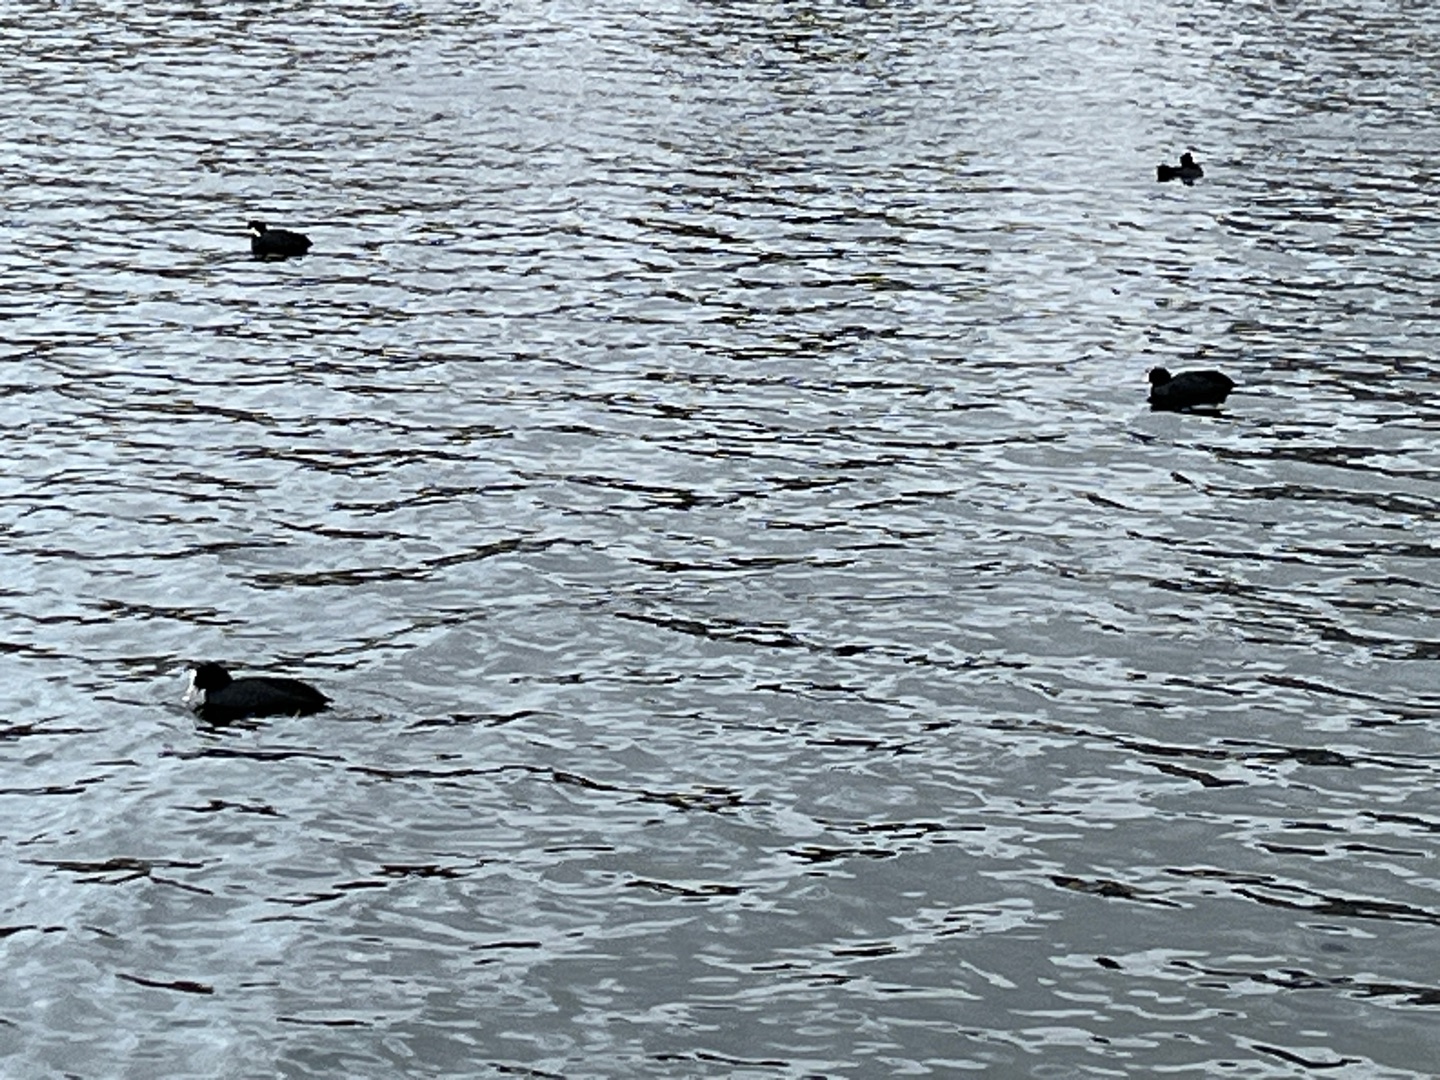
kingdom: Animalia
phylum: Chordata
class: Aves
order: Gruiformes
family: Rallidae
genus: Fulica
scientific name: Fulica atra
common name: Blishøne
